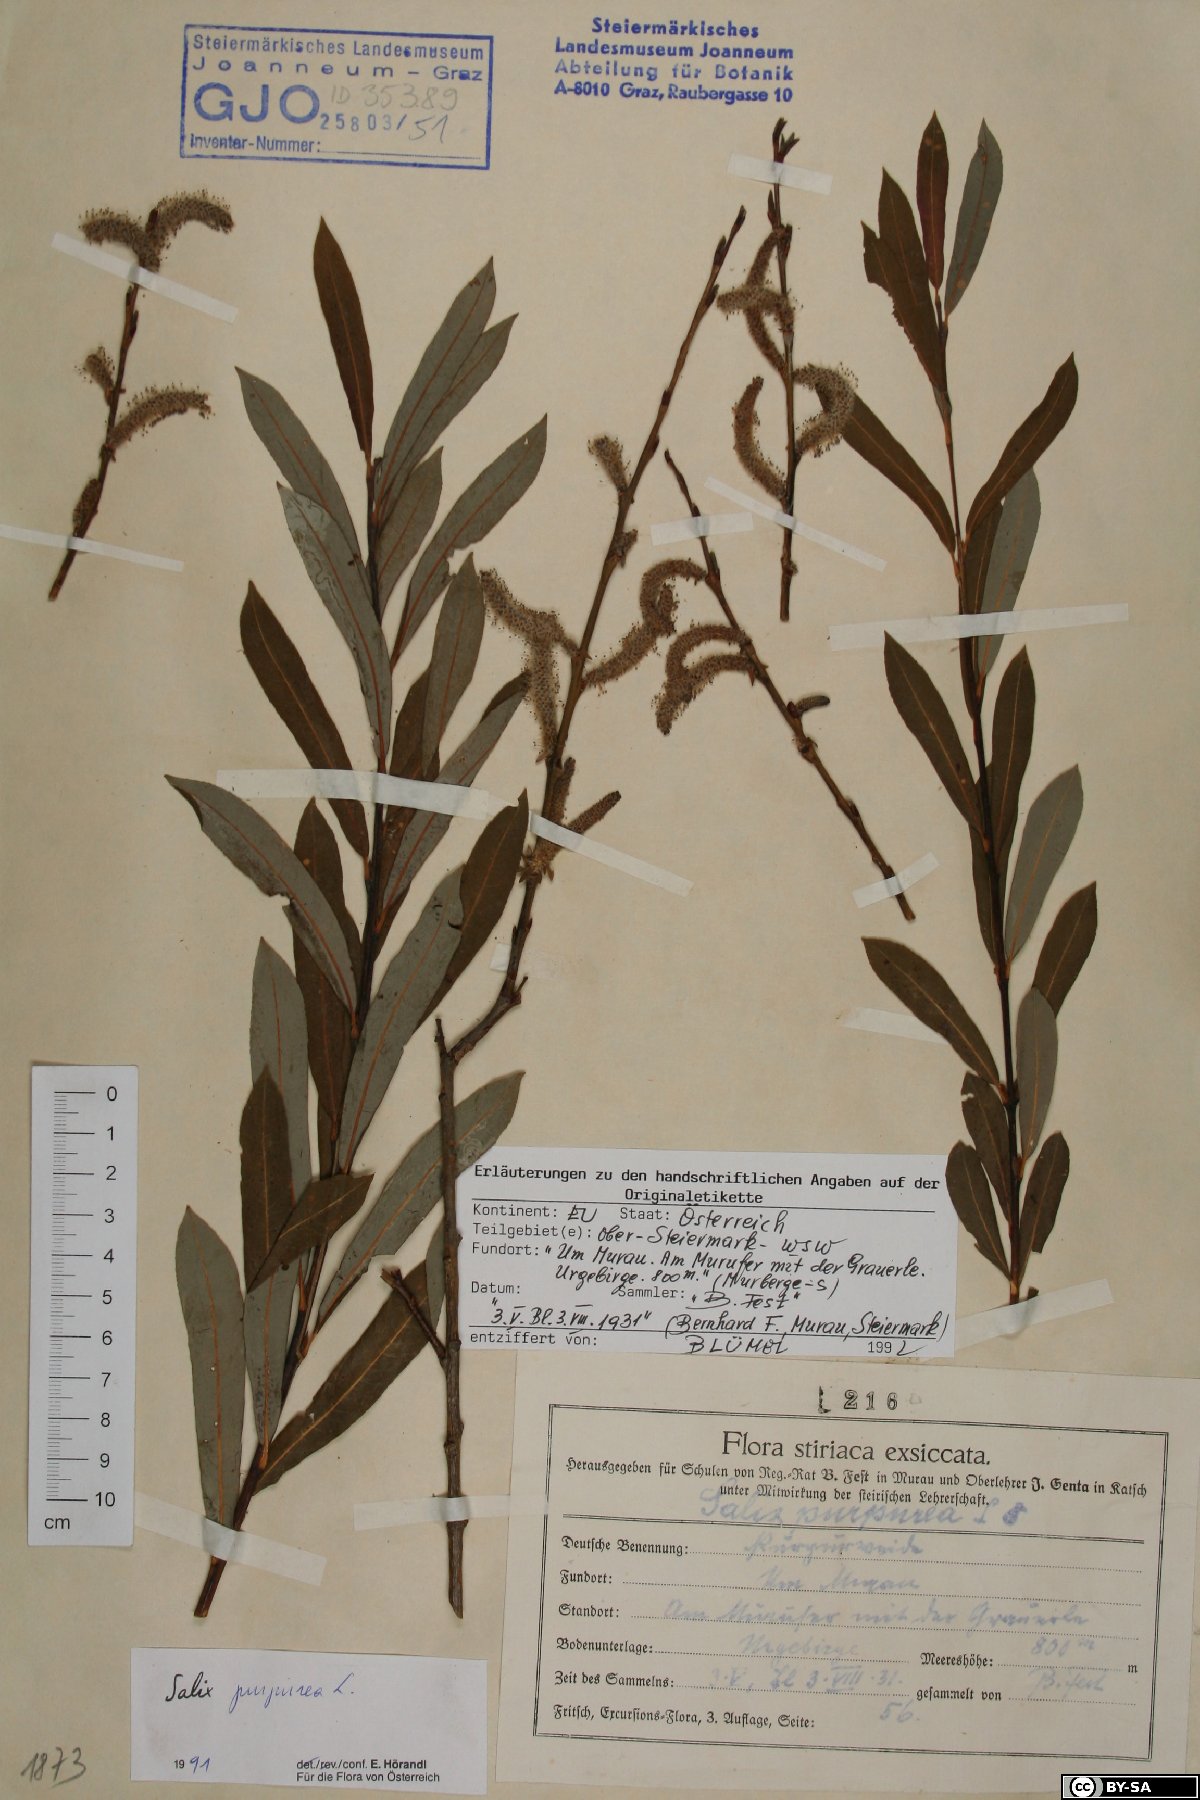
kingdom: Plantae
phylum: Tracheophyta
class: Magnoliopsida
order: Malpighiales
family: Salicaceae
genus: Salix
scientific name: Salix purpurea
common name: Purple willow
